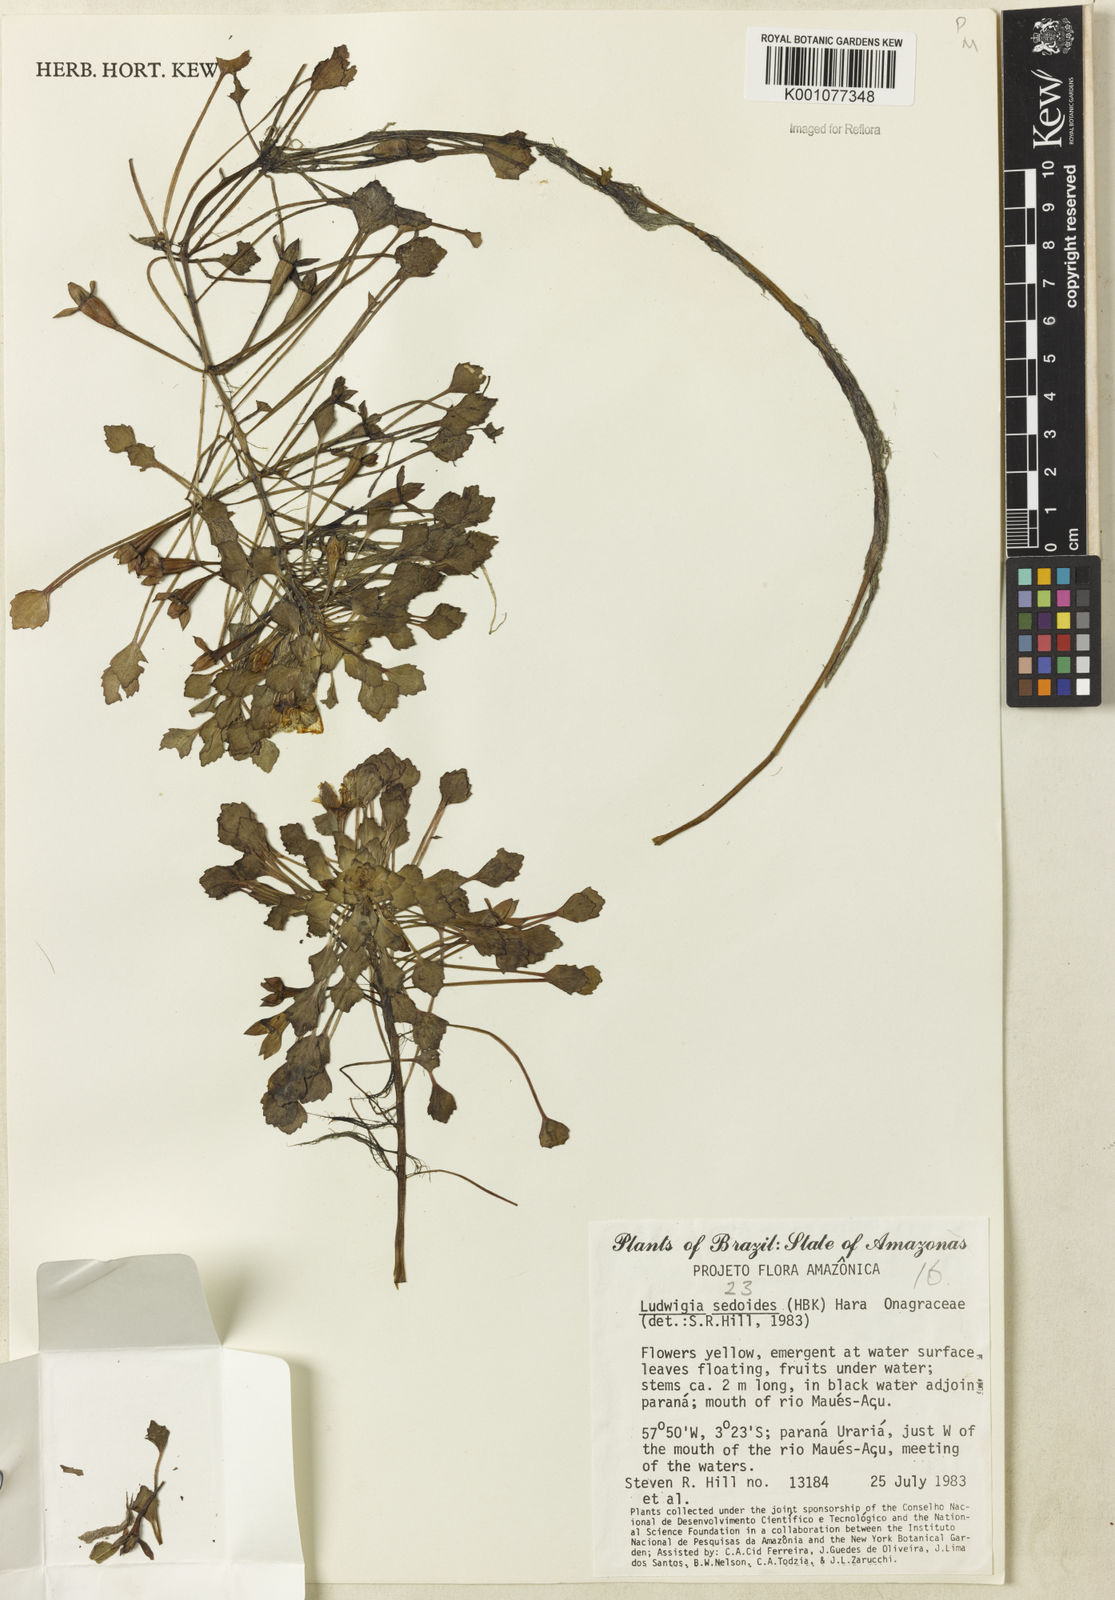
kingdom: Plantae
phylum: Tracheophyta
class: Magnoliopsida
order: Myrtales
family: Onagraceae
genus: Ludwigia
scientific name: Ludwigia sedoides
